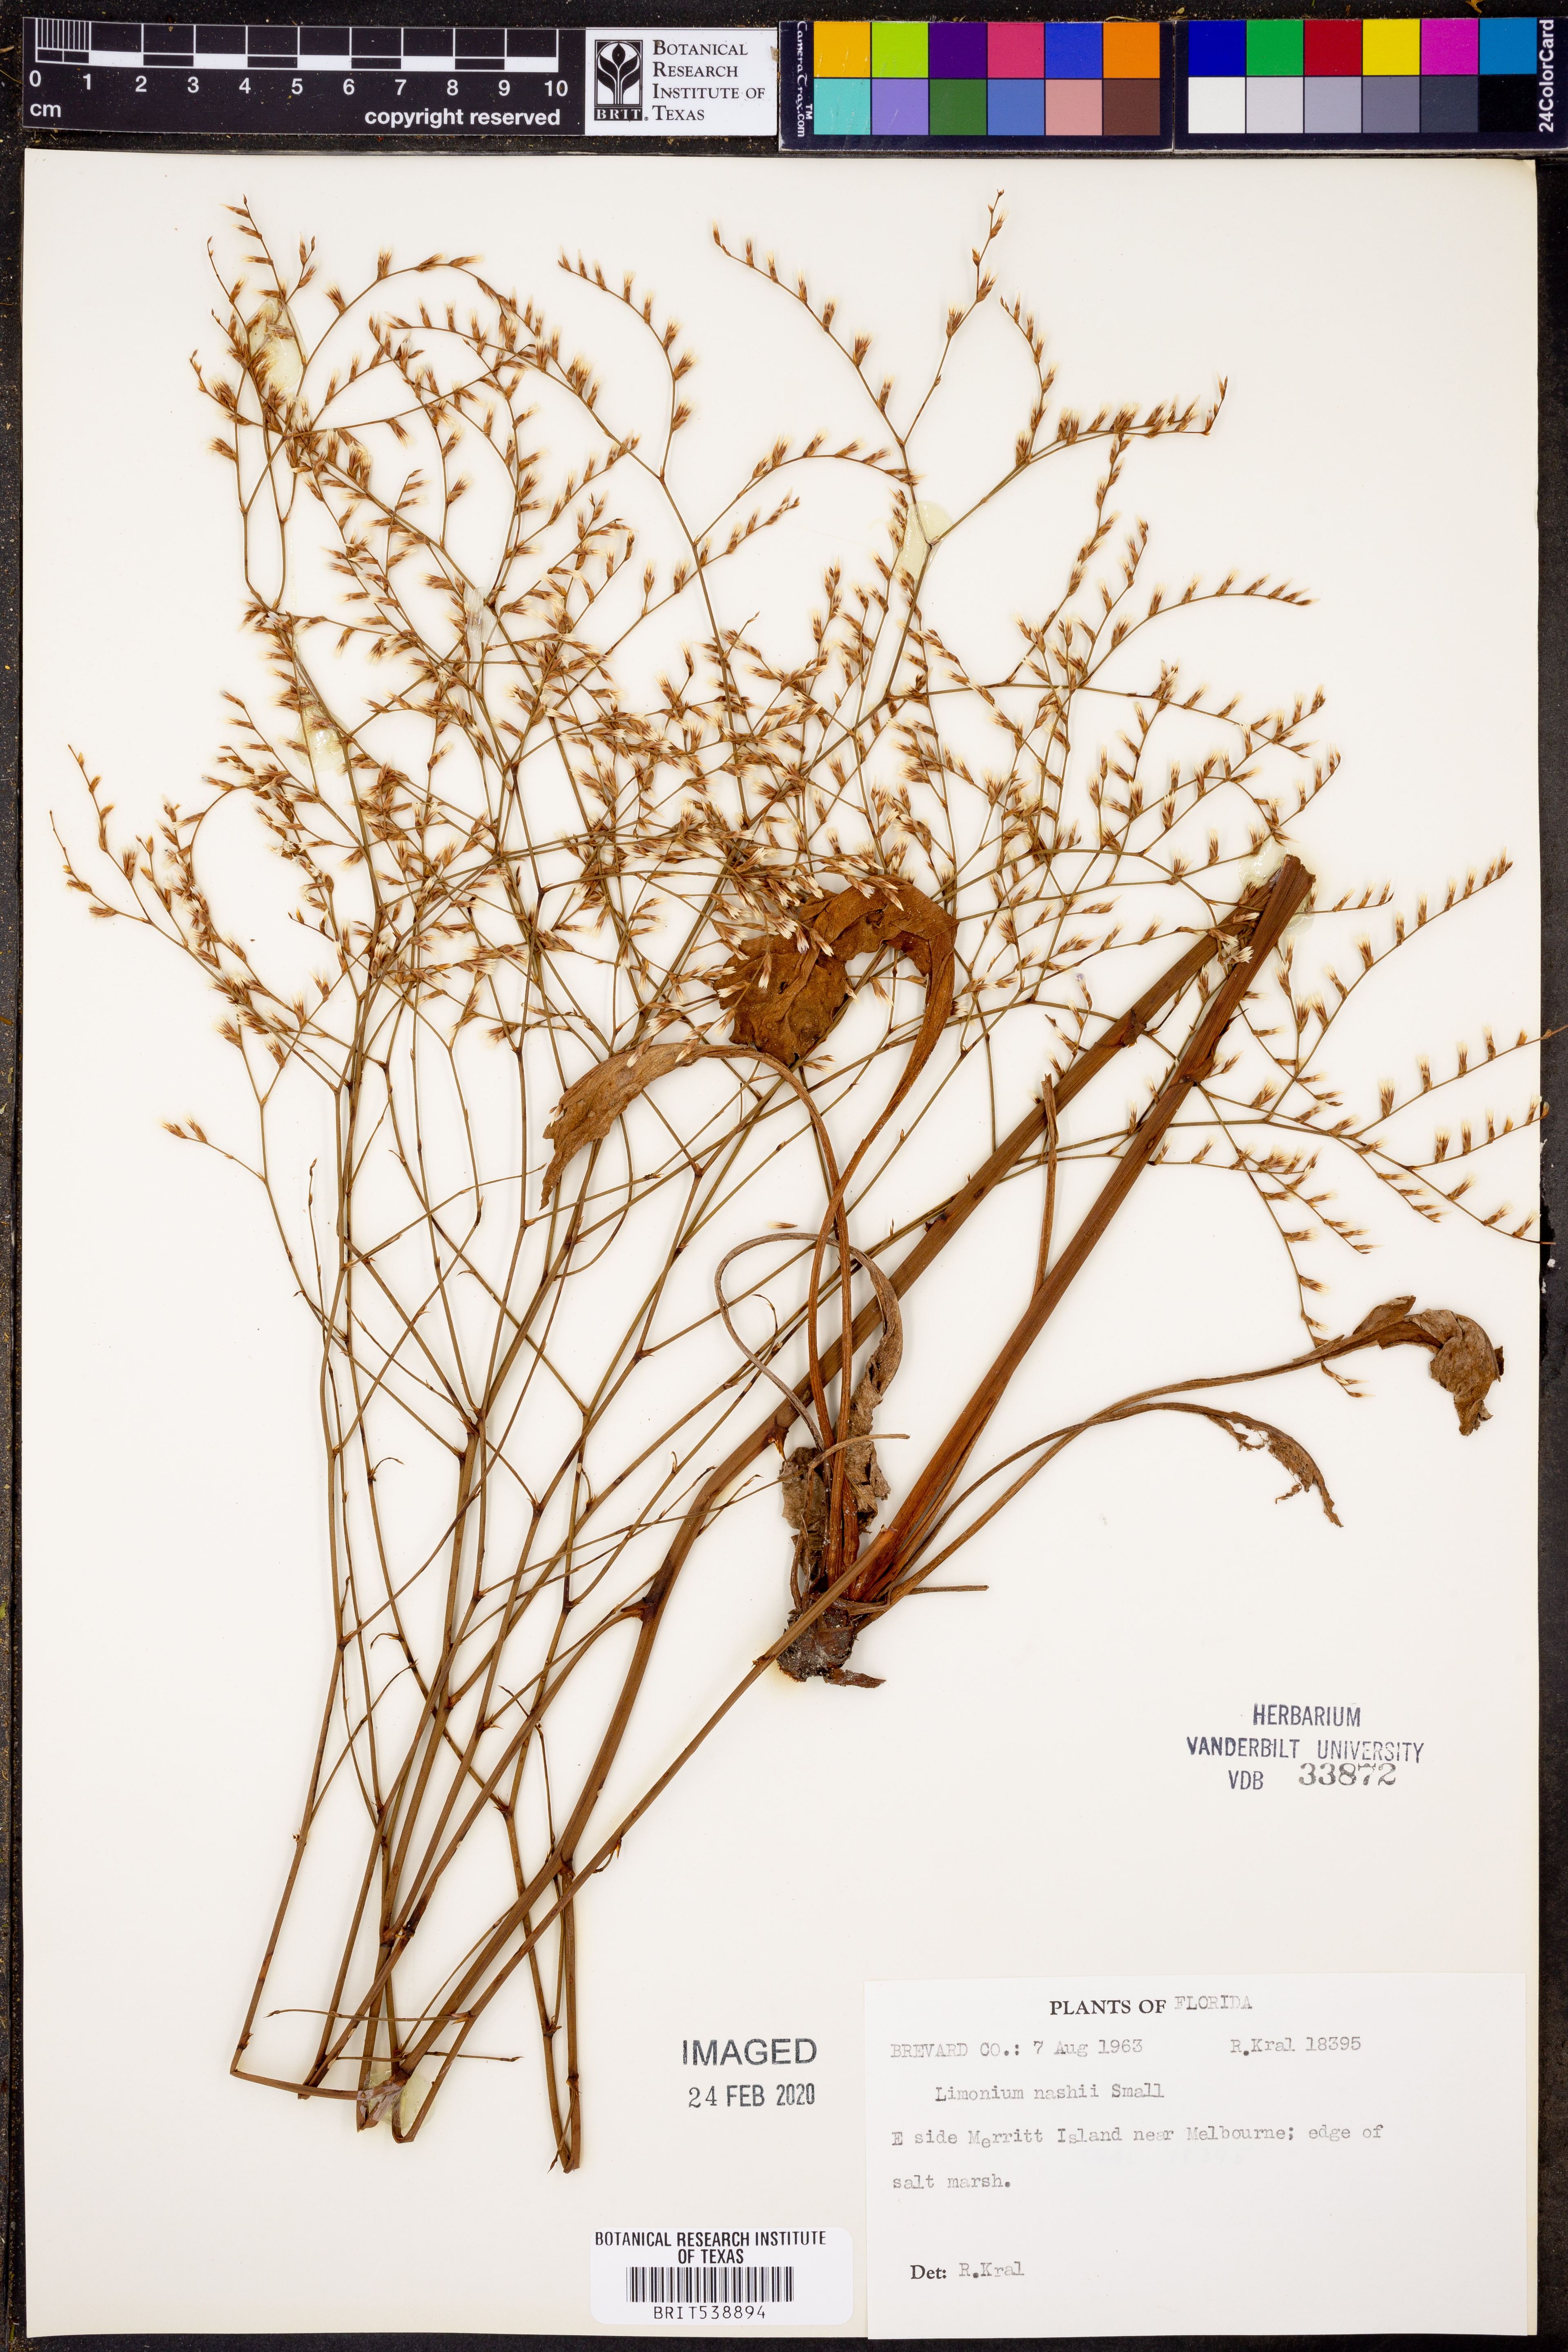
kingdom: Plantae
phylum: Tracheophyta
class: Magnoliopsida
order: Caryophyllales
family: Plumbaginaceae
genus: Limonium
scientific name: Limonium carolinianum
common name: Carolina sea lavender
